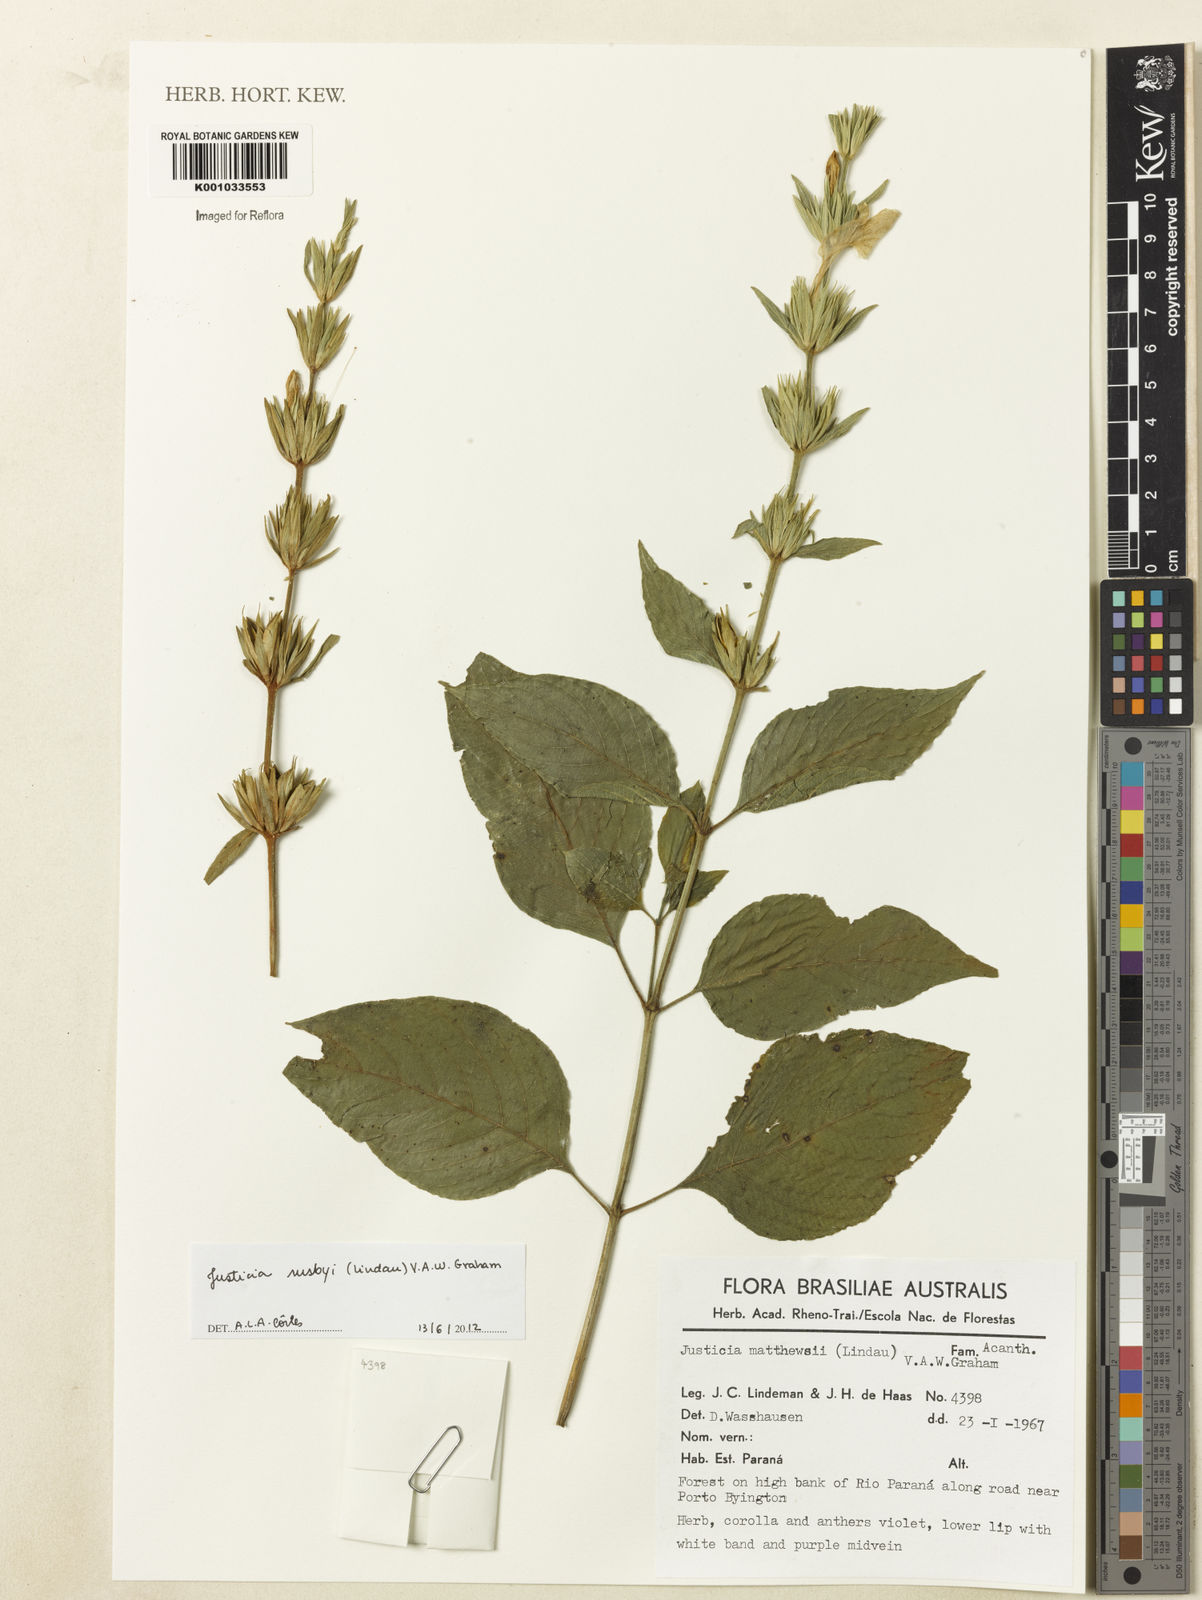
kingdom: Plantae
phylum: Tracheophyta
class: Magnoliopsida
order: Lamiales
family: Acanthaceae
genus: Justicia
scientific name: Justicia rusbyi
